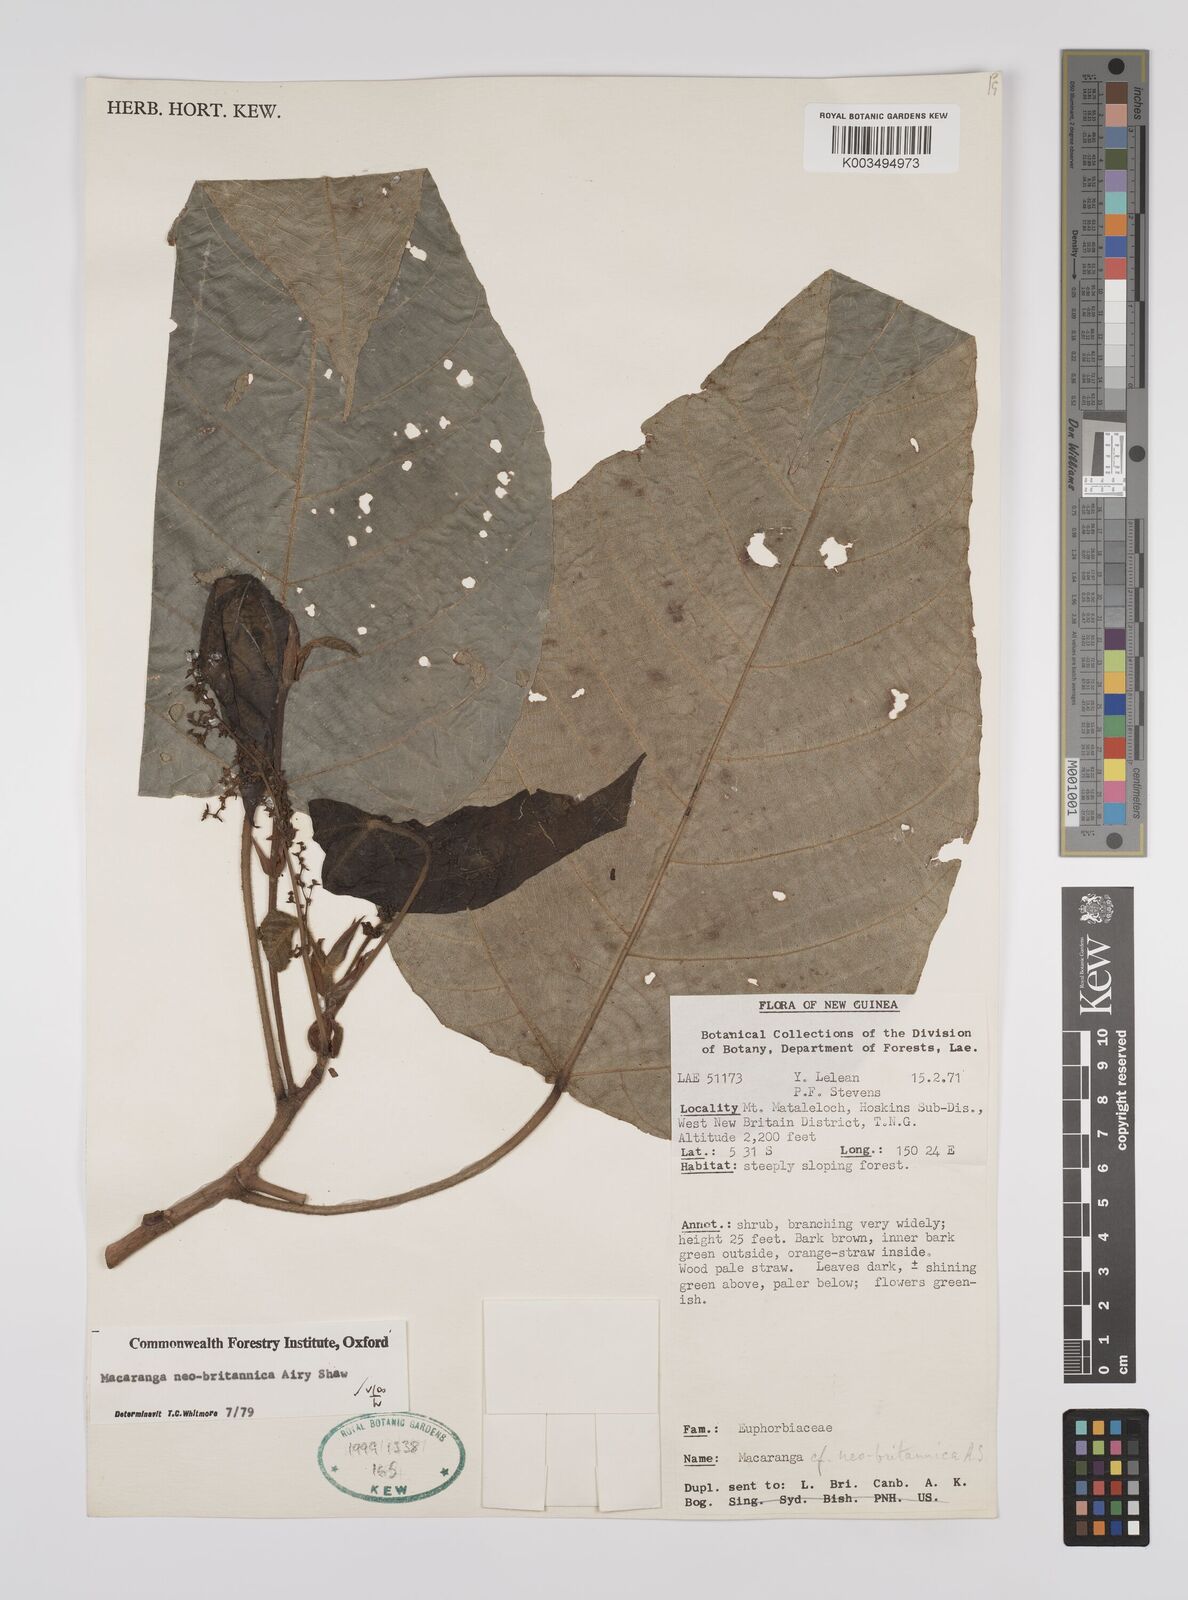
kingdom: Plantae
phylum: Tracheophyta
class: Magnoliopsida
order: Malpighiales
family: Euphorbiaceae
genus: Macaranga
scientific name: Macaranga neobritannica
